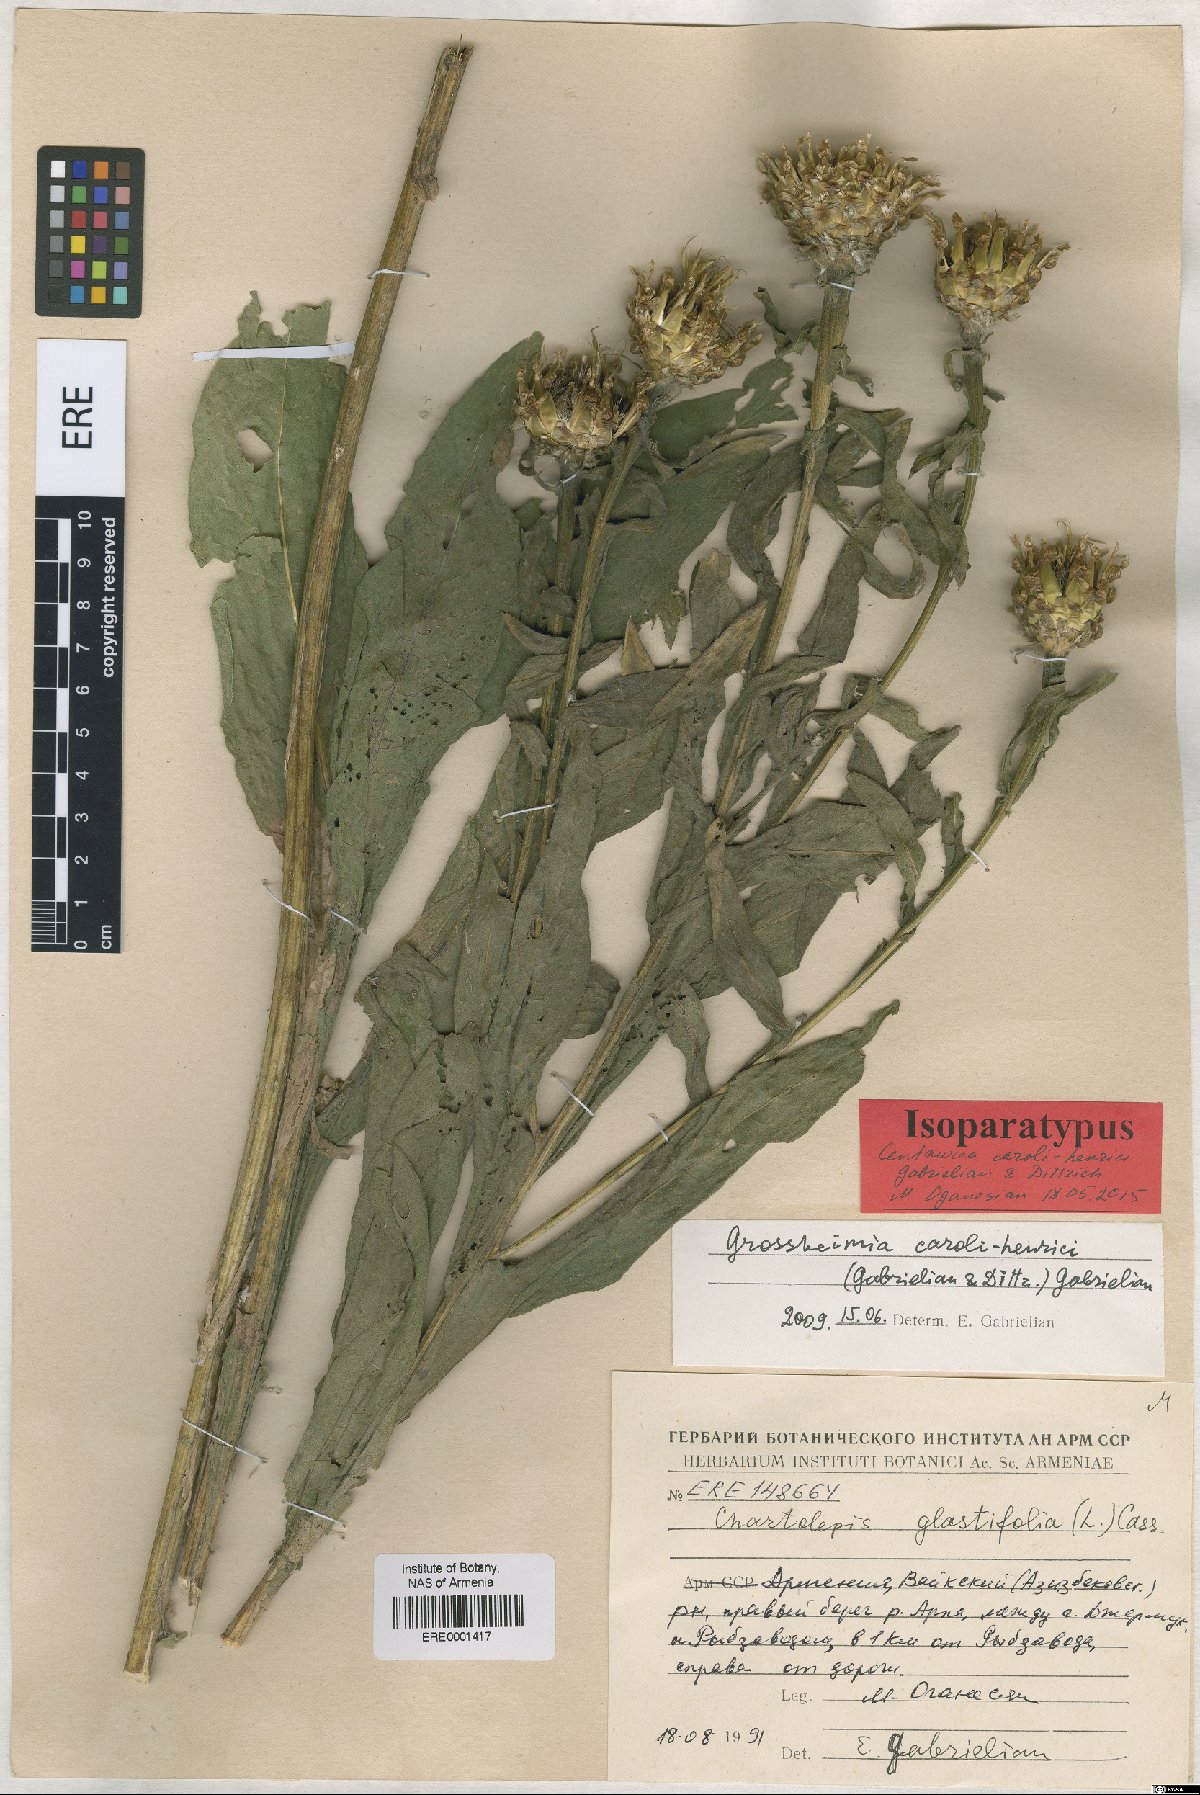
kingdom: Plantae
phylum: Tracheophyta
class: Magnoliopsida
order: Asterales
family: Asteraceae
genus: Centaurea
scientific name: Centaurea caroli-henrici
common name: Karl-henrikh's centaury
